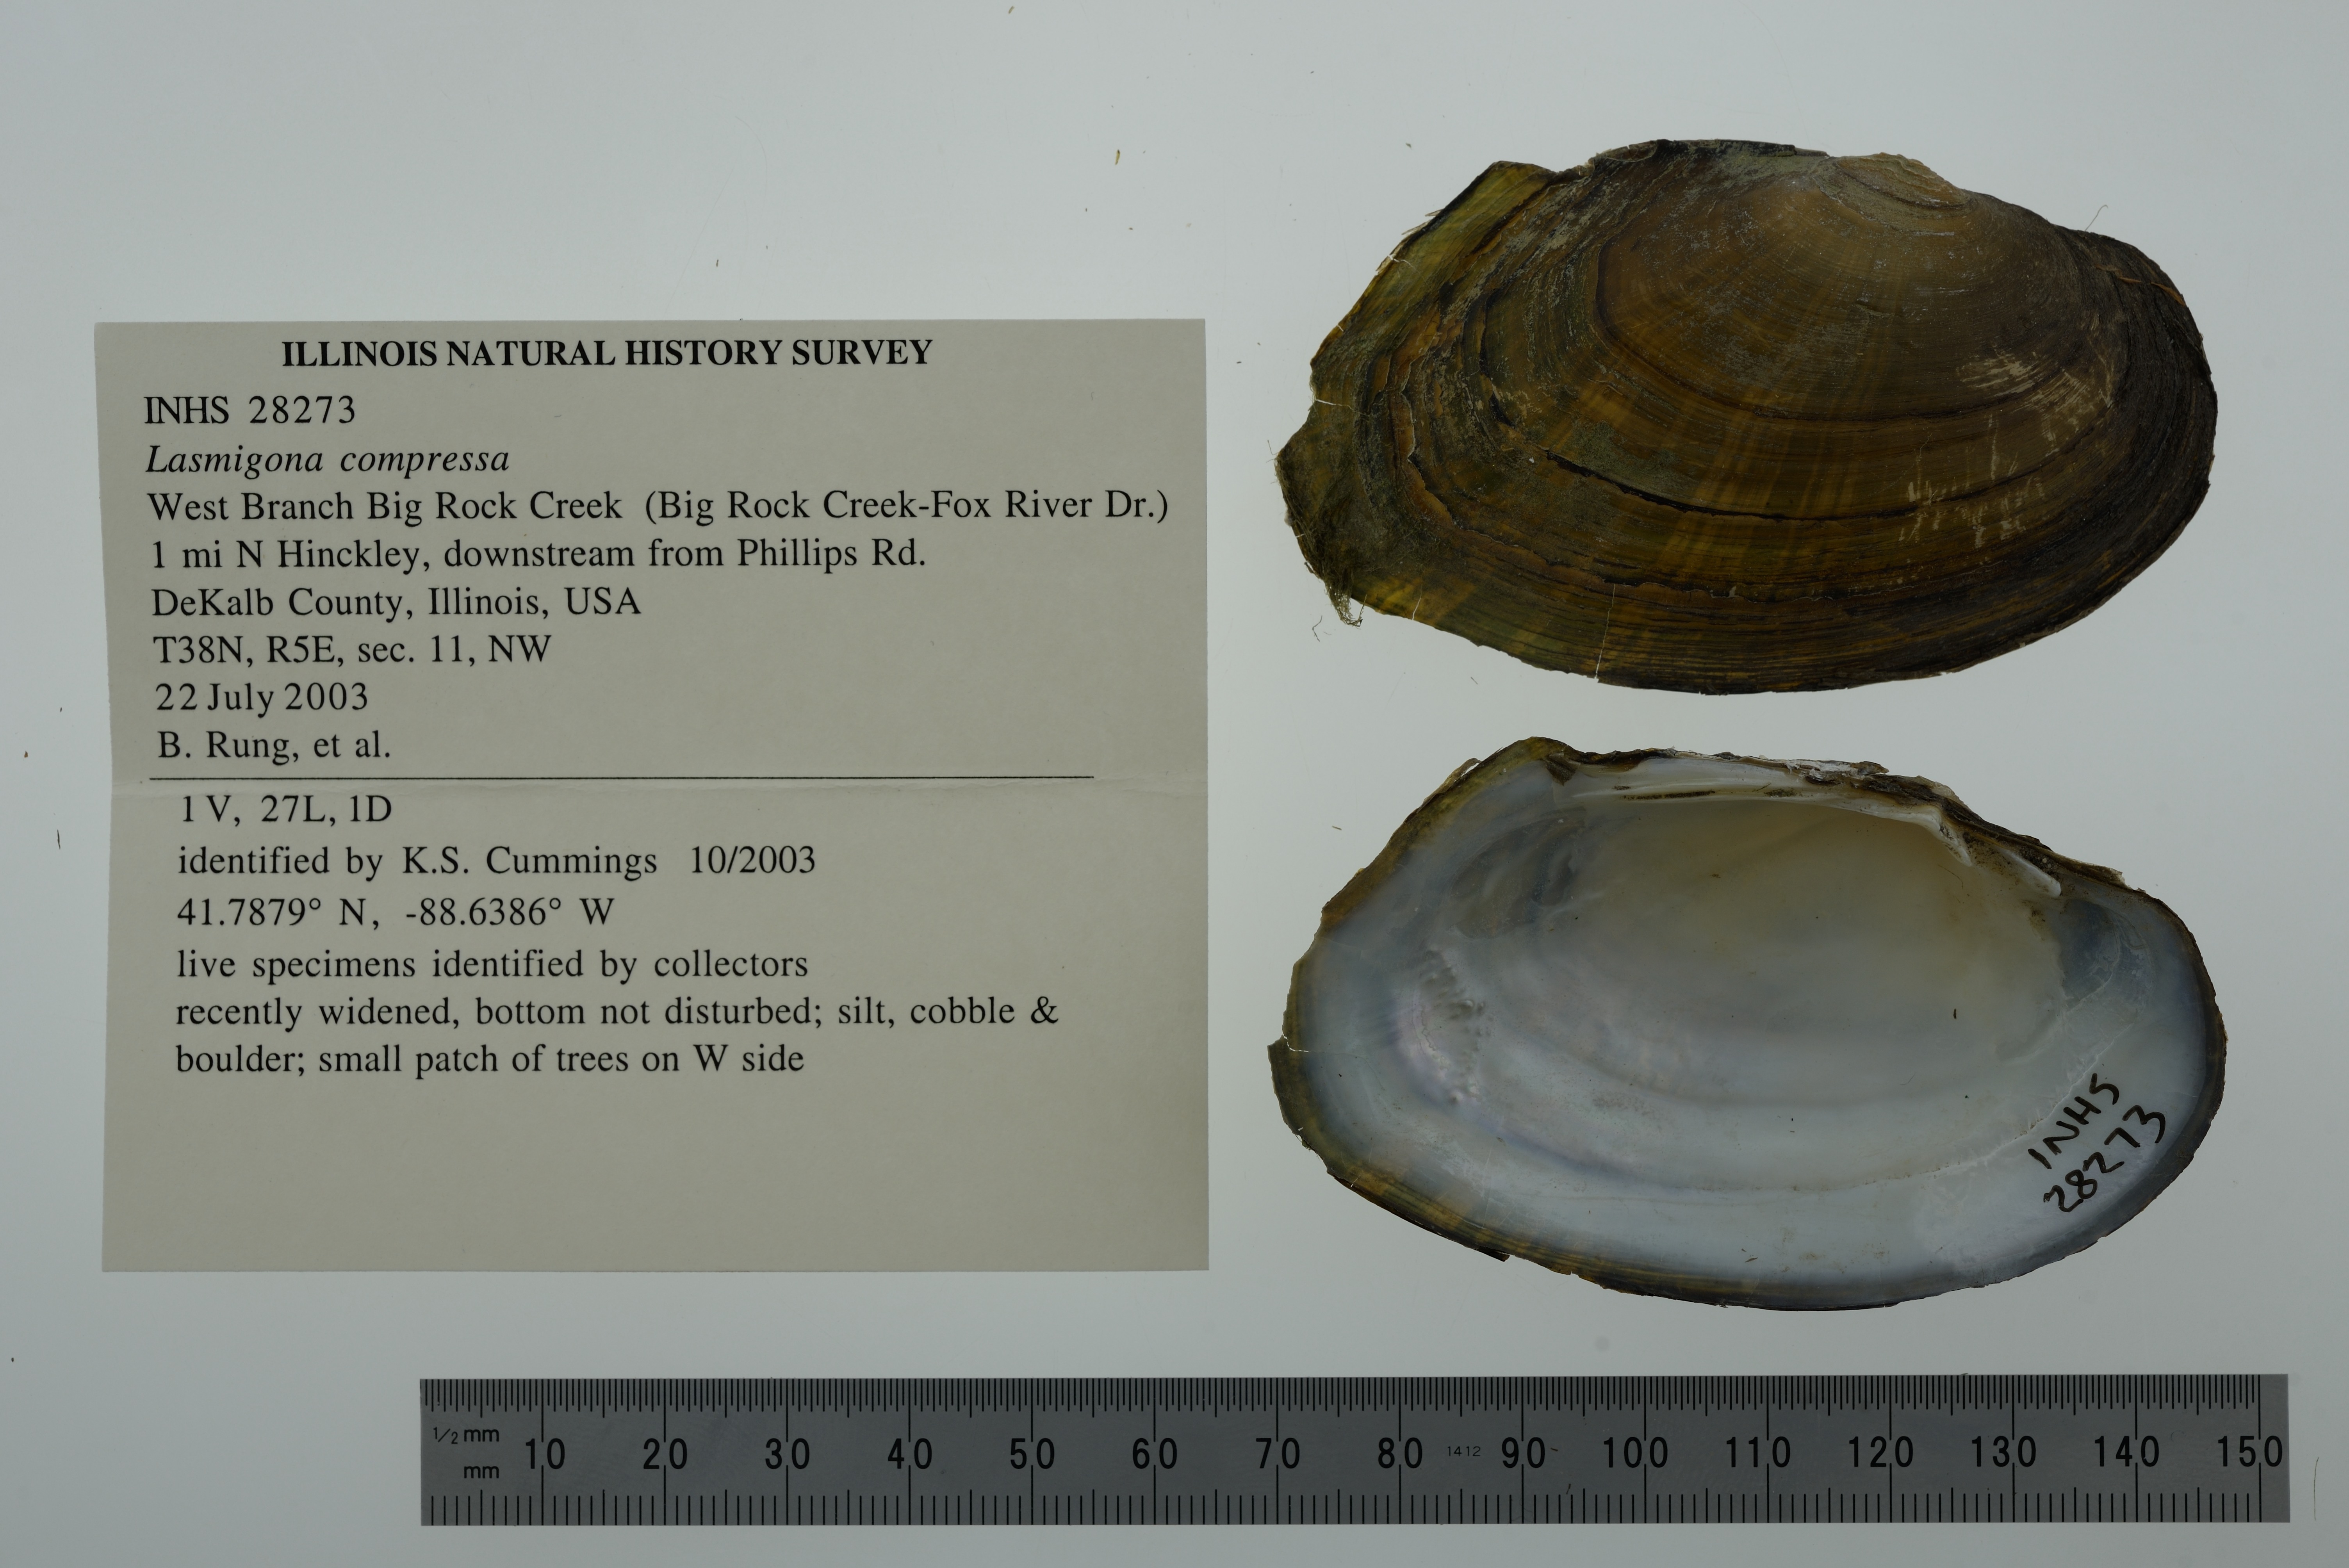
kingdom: Animalia
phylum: Mollusca
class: Bivalvia
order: Unionida
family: Unionidae
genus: Lasmigona
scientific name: Lasmigona compressa
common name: Creek heelsplitter
